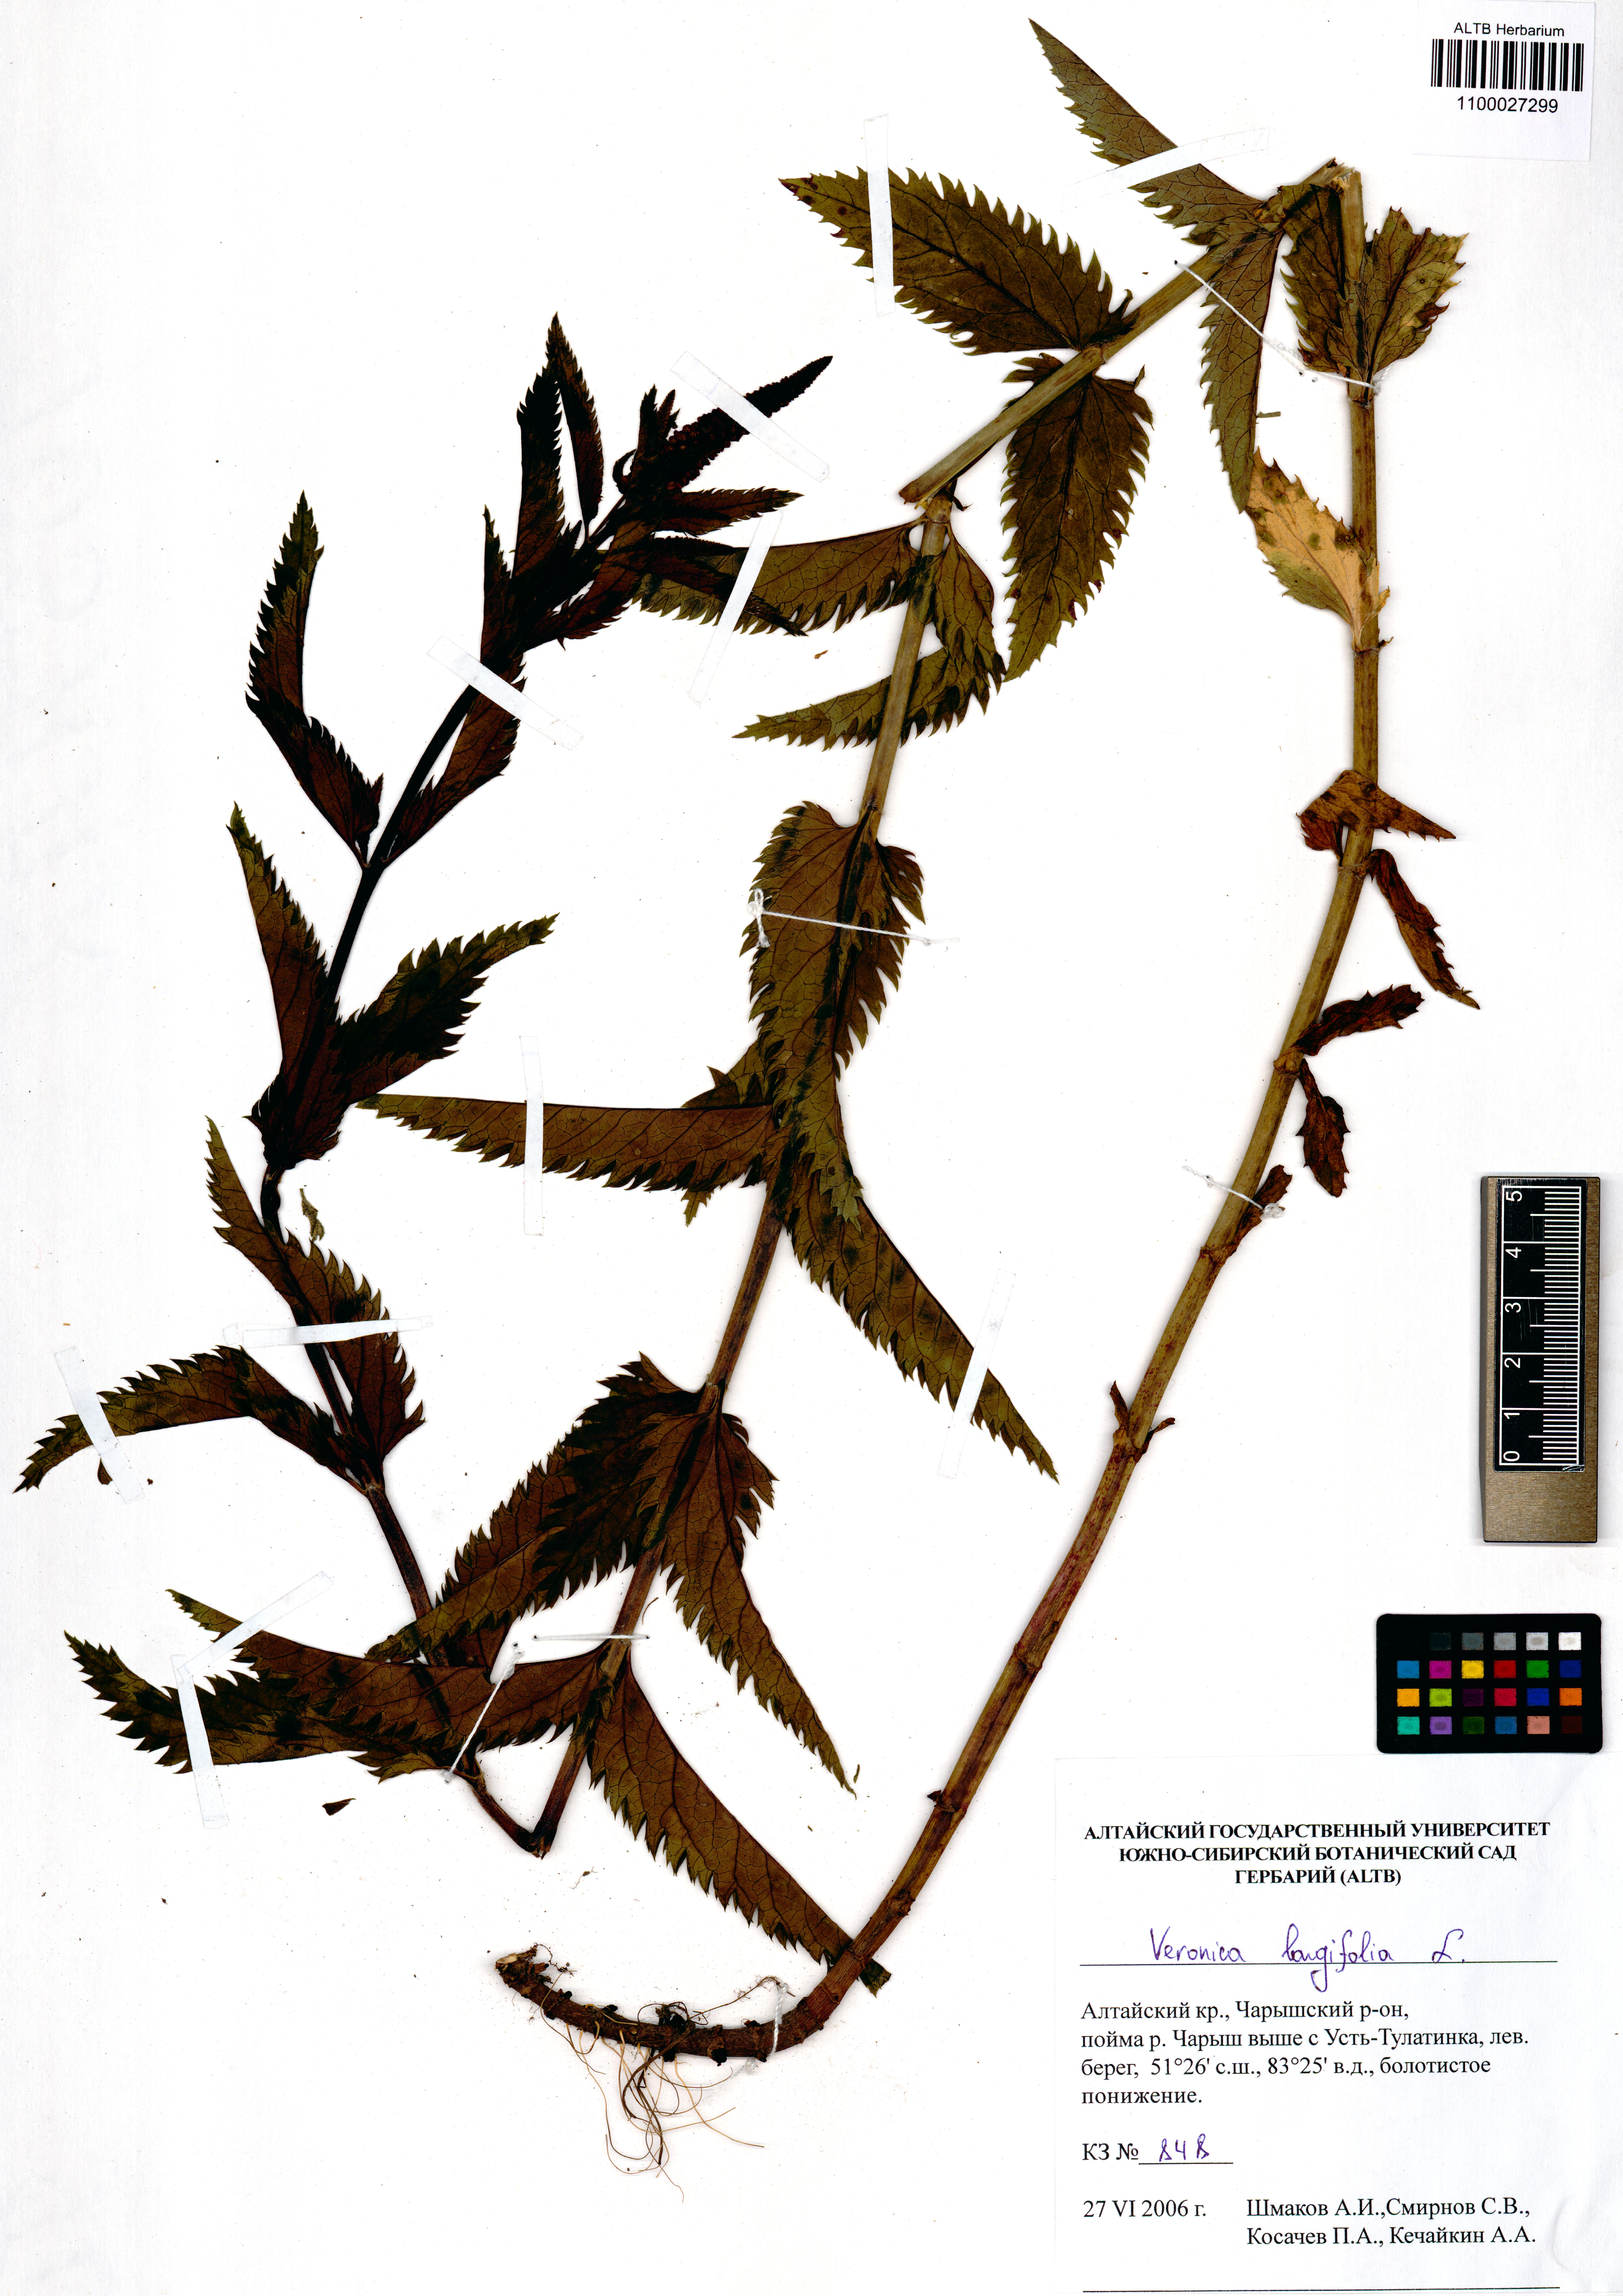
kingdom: Plantae
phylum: Tracheophyta
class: Magnoliopsida
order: Lamiales
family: Plantaginaceae
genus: Veronica
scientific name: Veronica longifolia
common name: Garden speedwell
